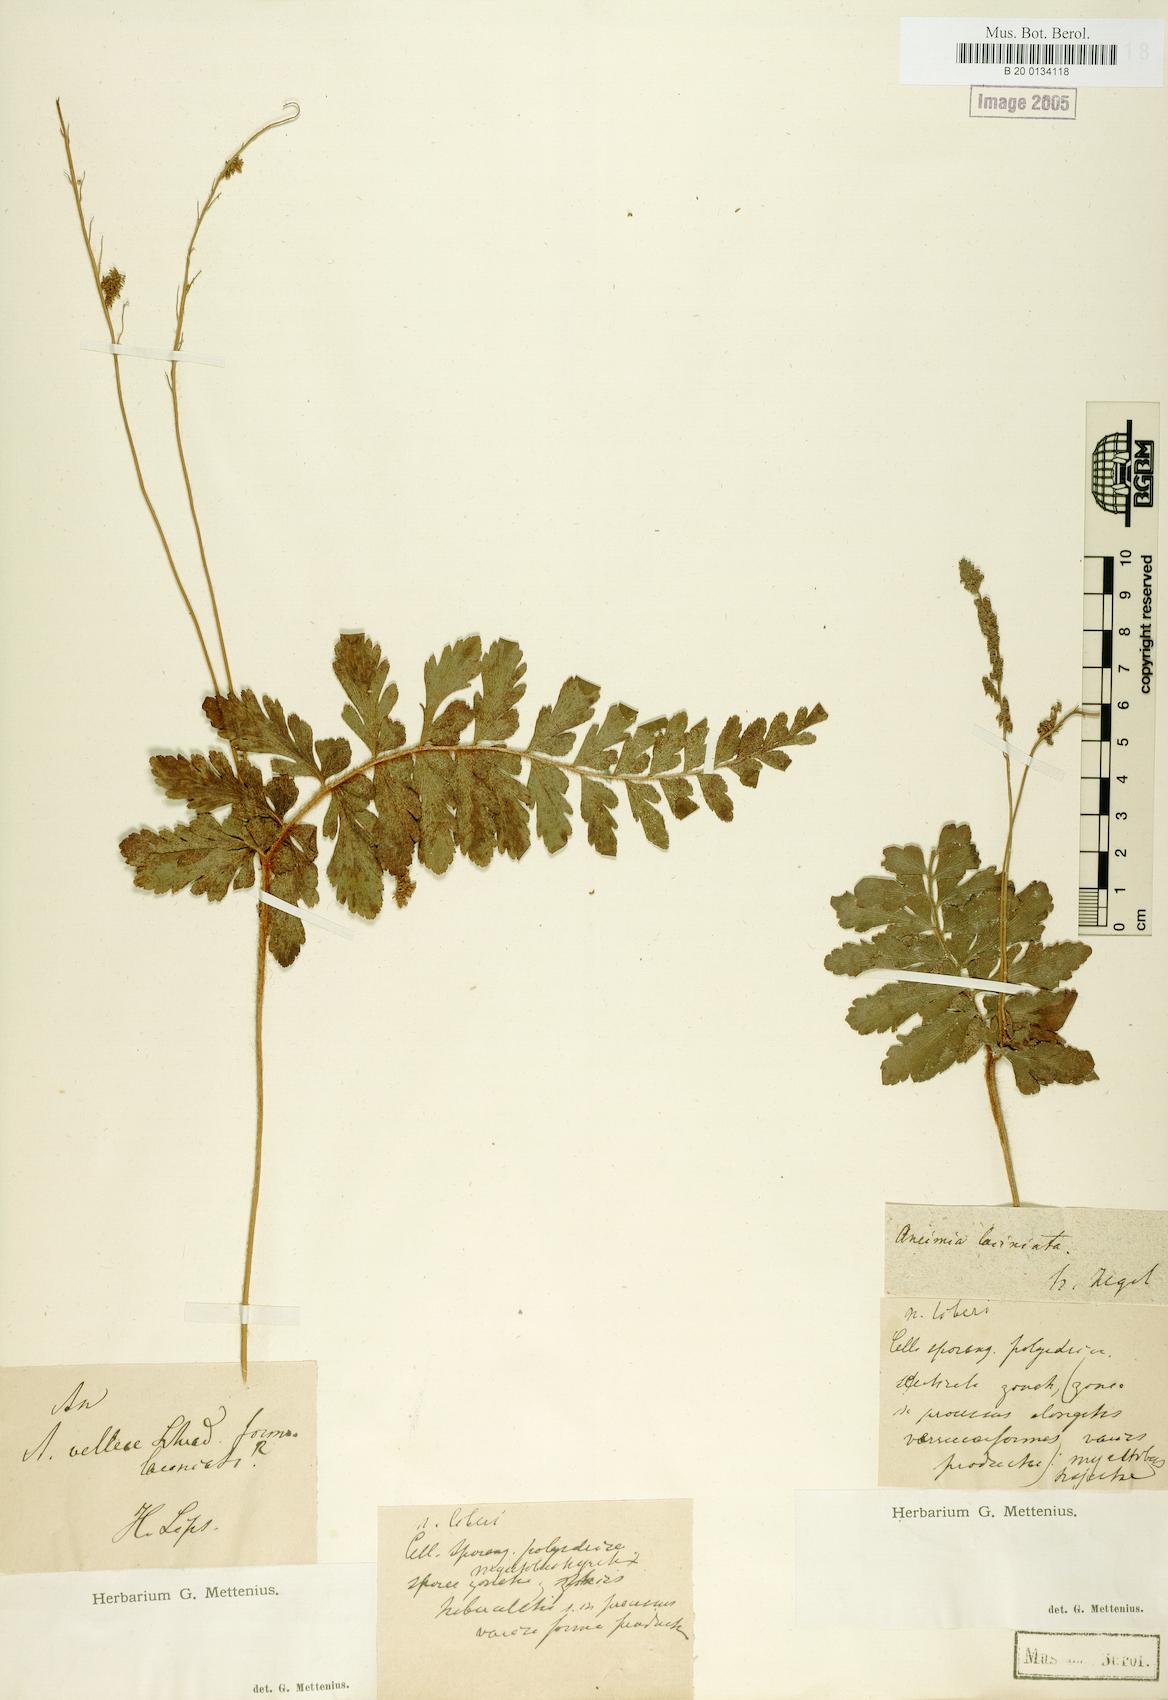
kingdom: Plantae
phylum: Tracheophyta
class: Polypodiopsida
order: Schizaeales
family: Anemiaceae
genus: Anemia
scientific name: Anemia phyllitidis
